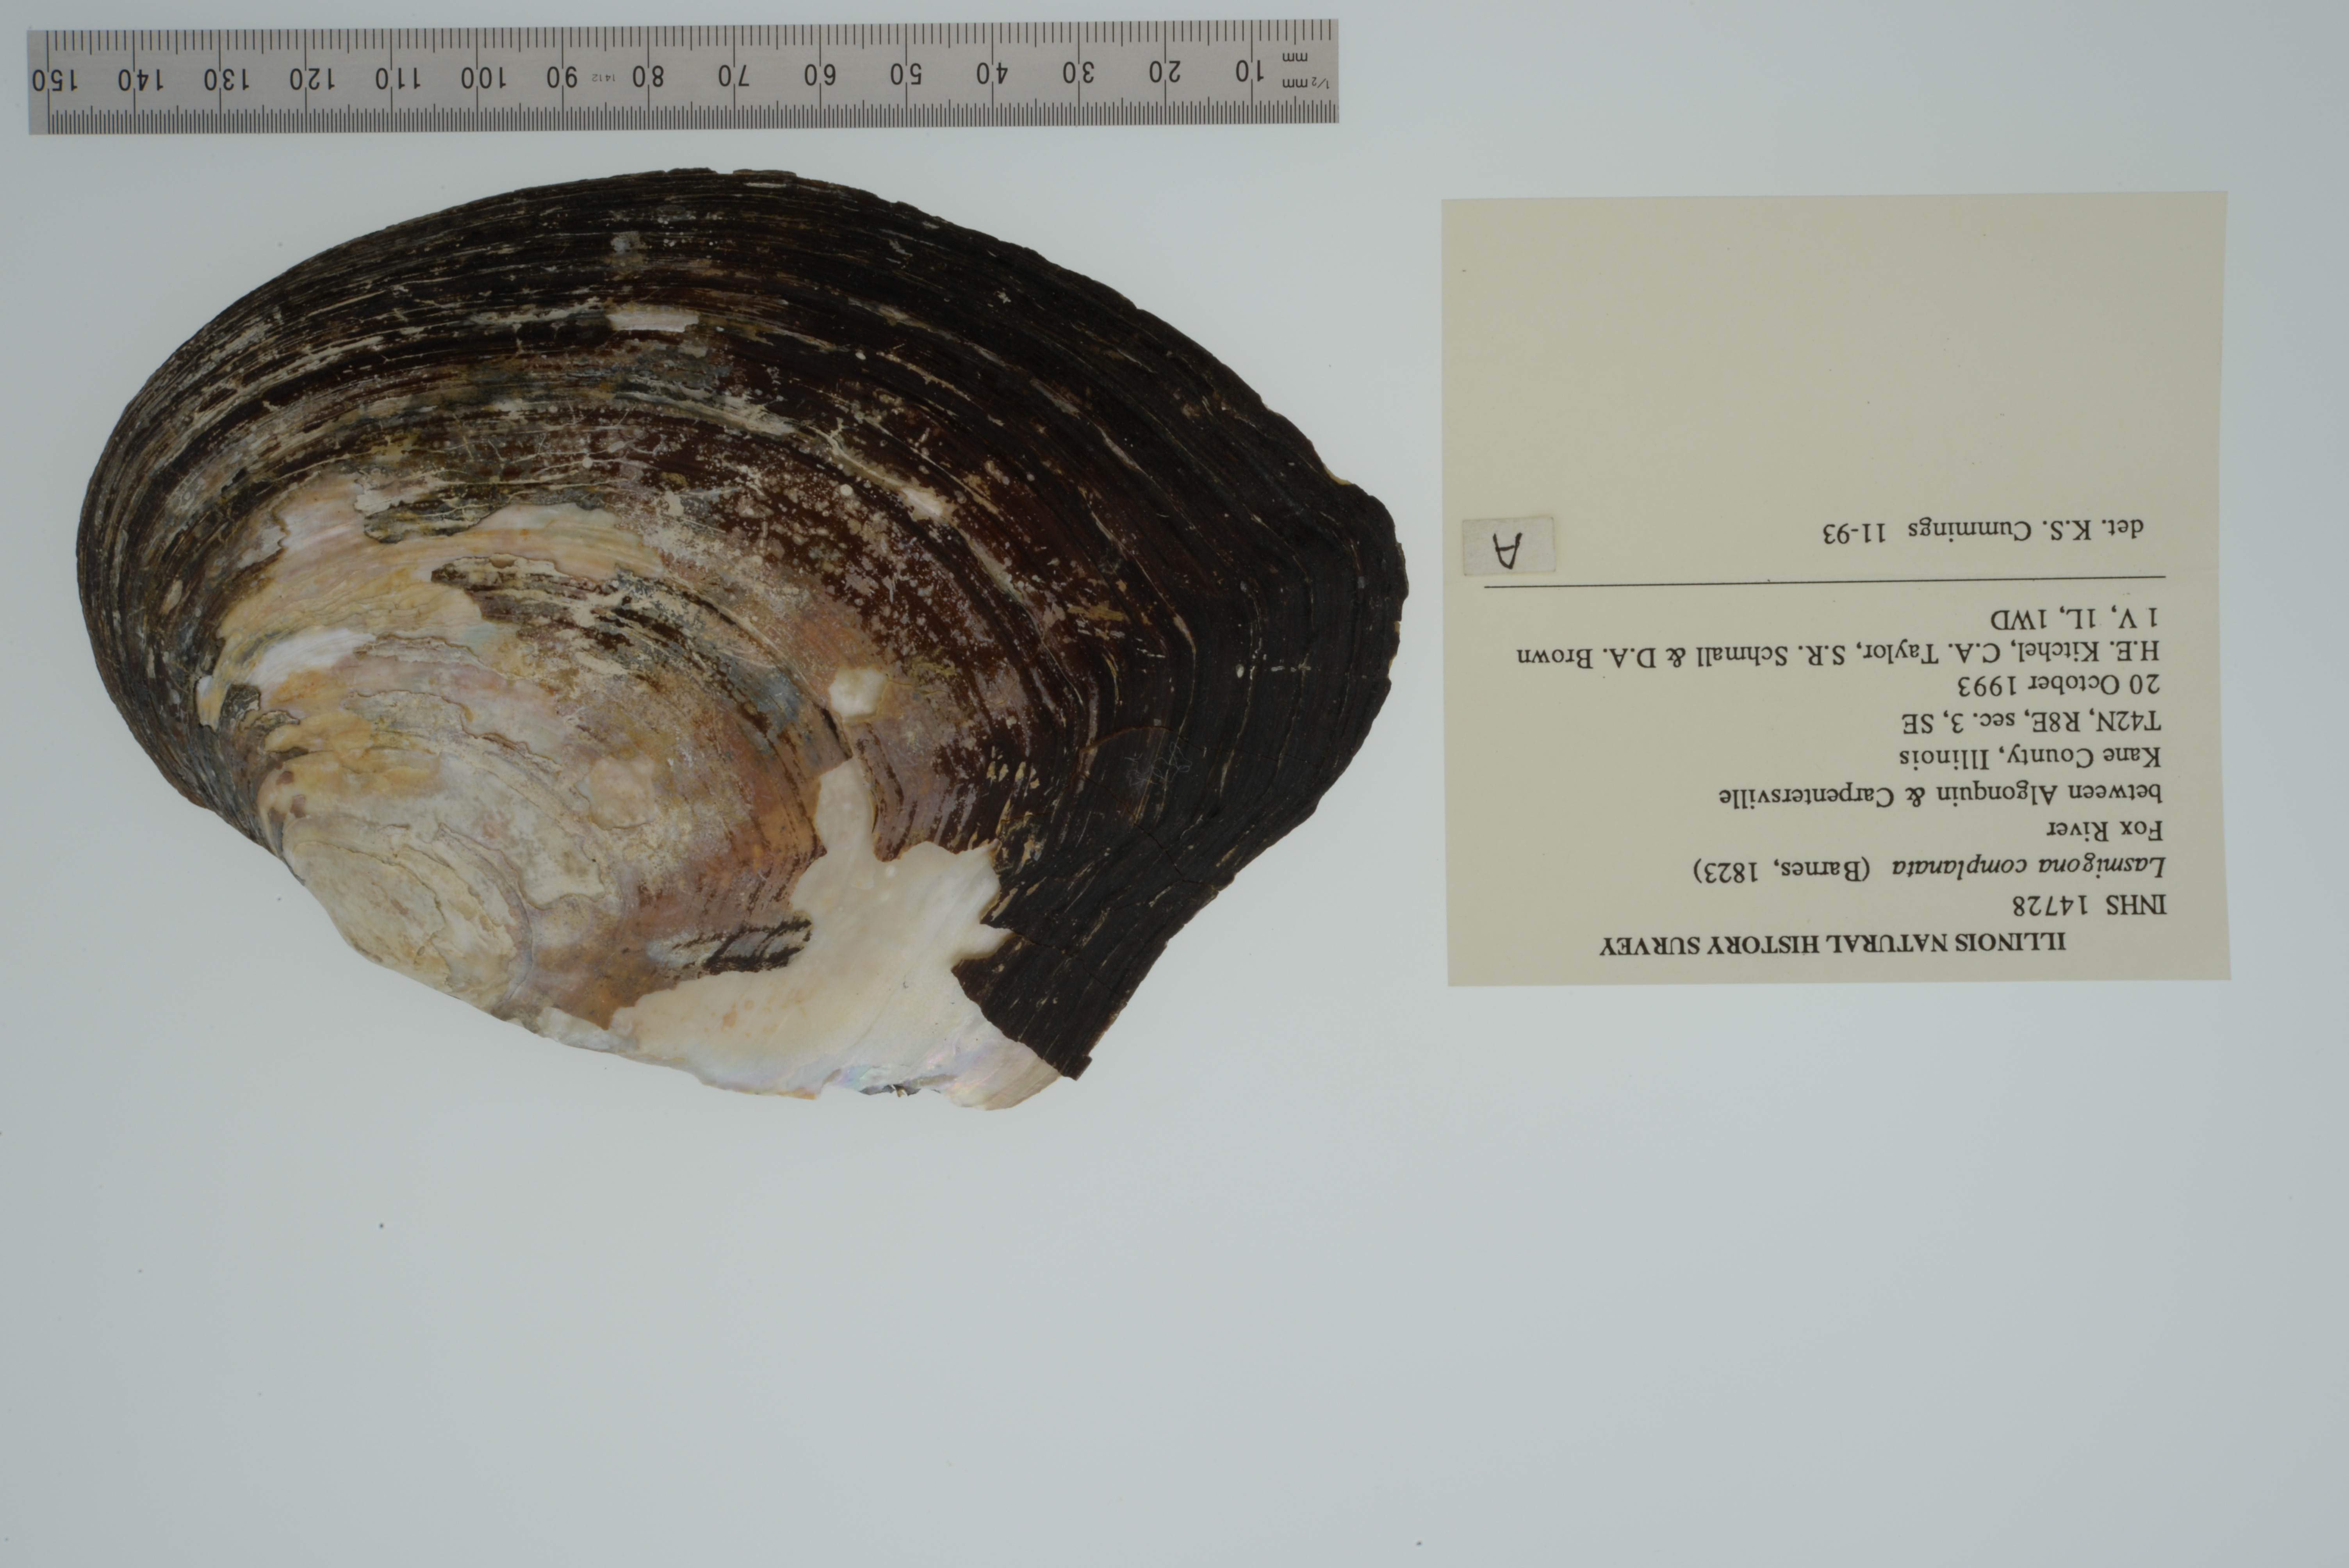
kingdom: Animalia
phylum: Mollusca
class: Bivalvia
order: Unionida
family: Unionidae
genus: Lasmigona
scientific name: Lasmigona complanata
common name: White heelsplitter
